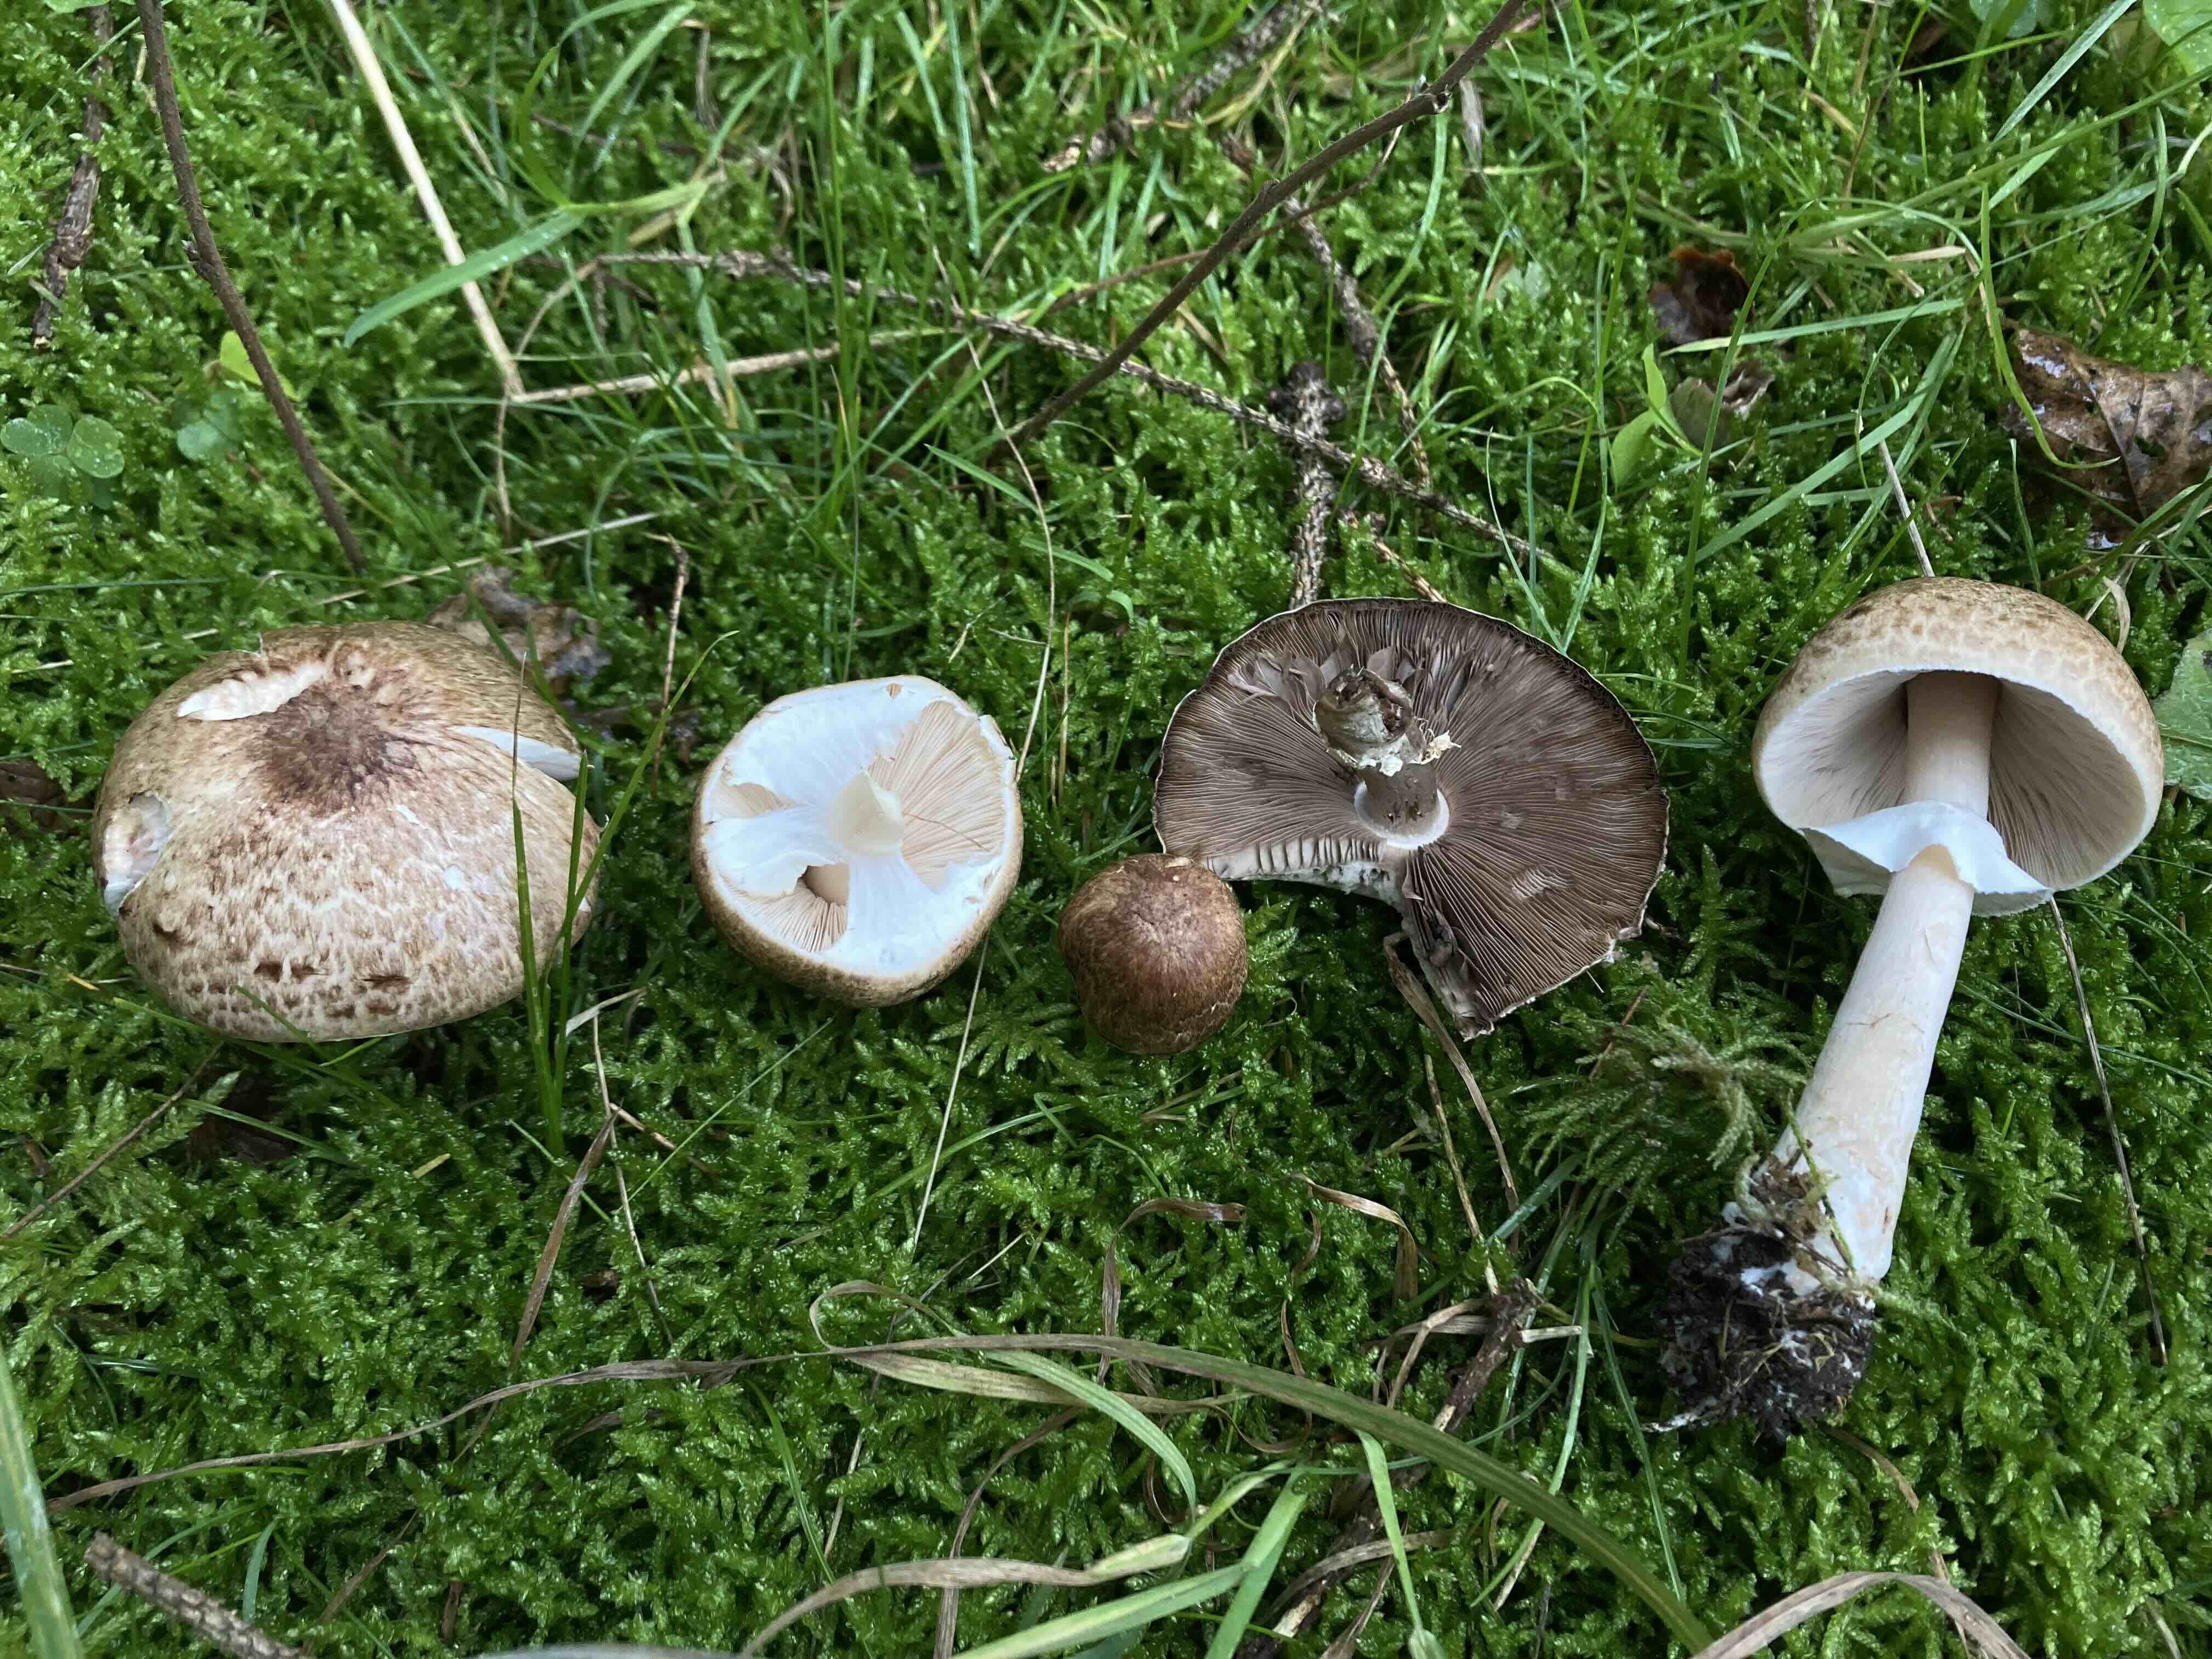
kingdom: Fungi
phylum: Basidiomycota
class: Agaricomycetes
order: Agaricales
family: Agaricaceae
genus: Agaricus
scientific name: Agaricus impudicus
